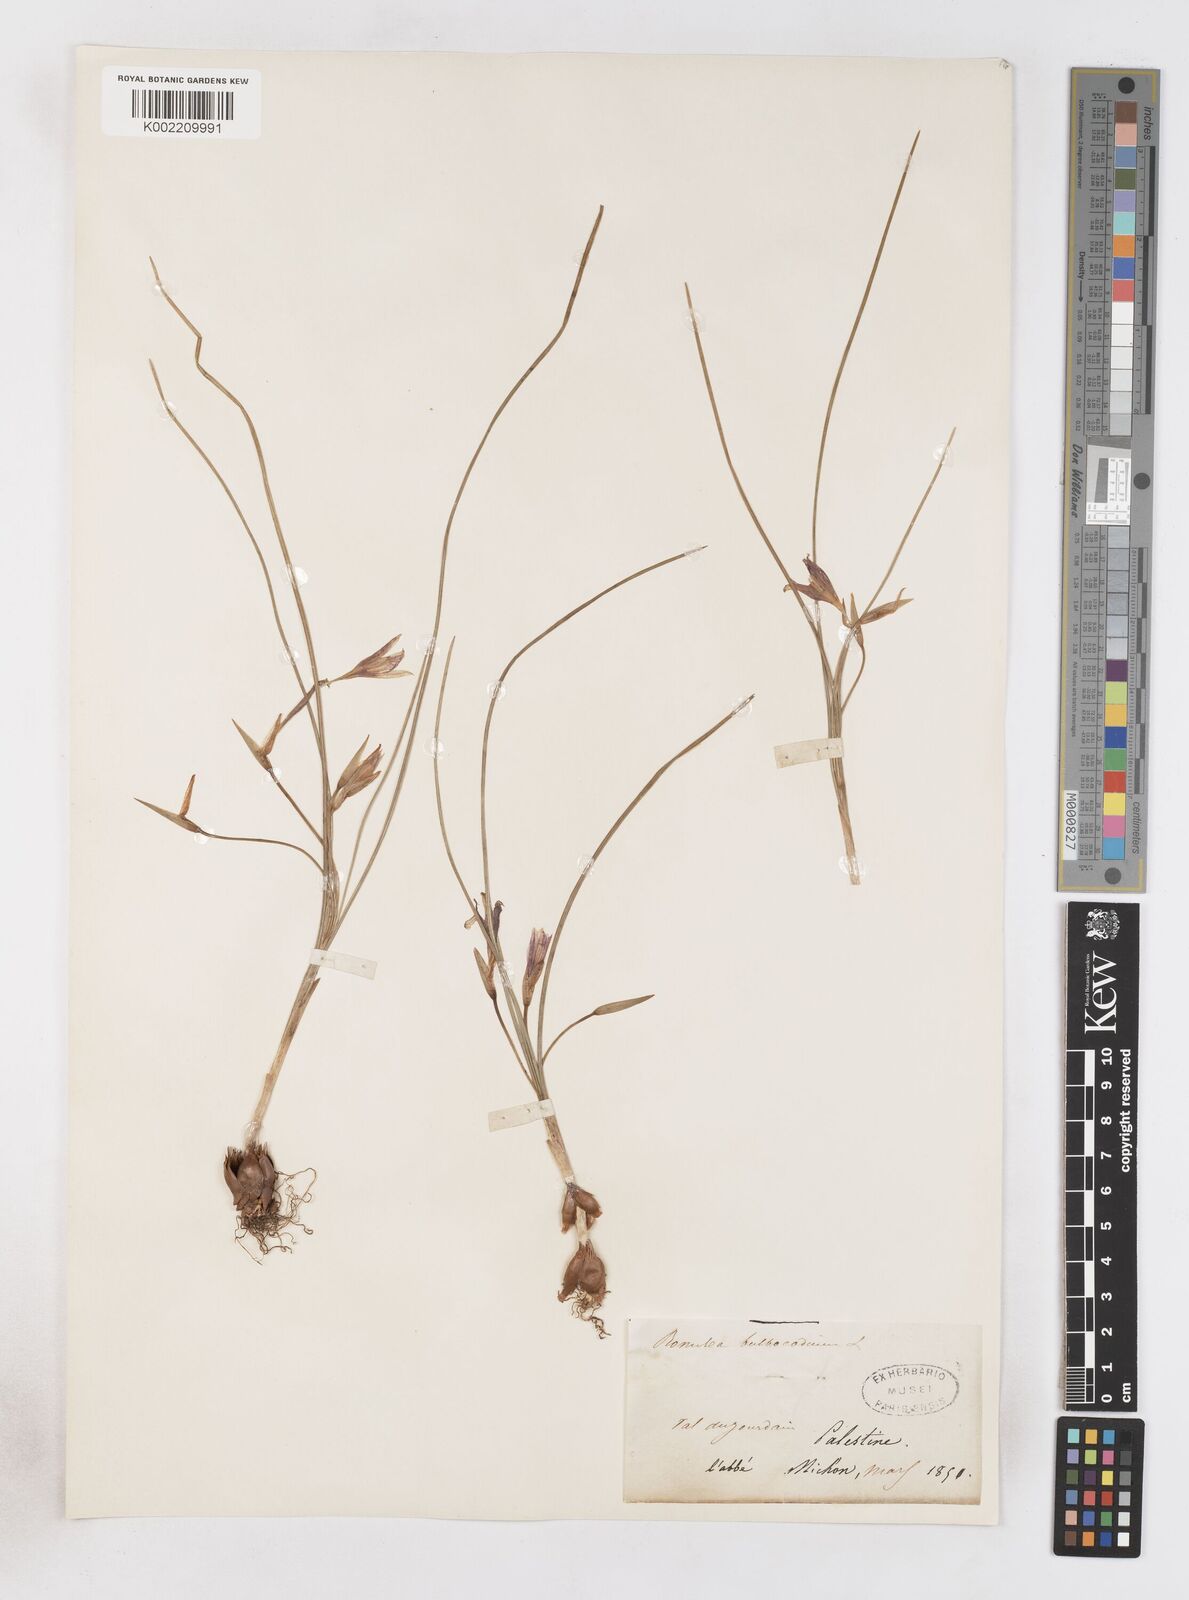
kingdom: Plantae
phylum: Tracheophyta
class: Liliopsida
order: Asparagales
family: Iridaceae
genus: Romulea
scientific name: Romulea tempskyana
